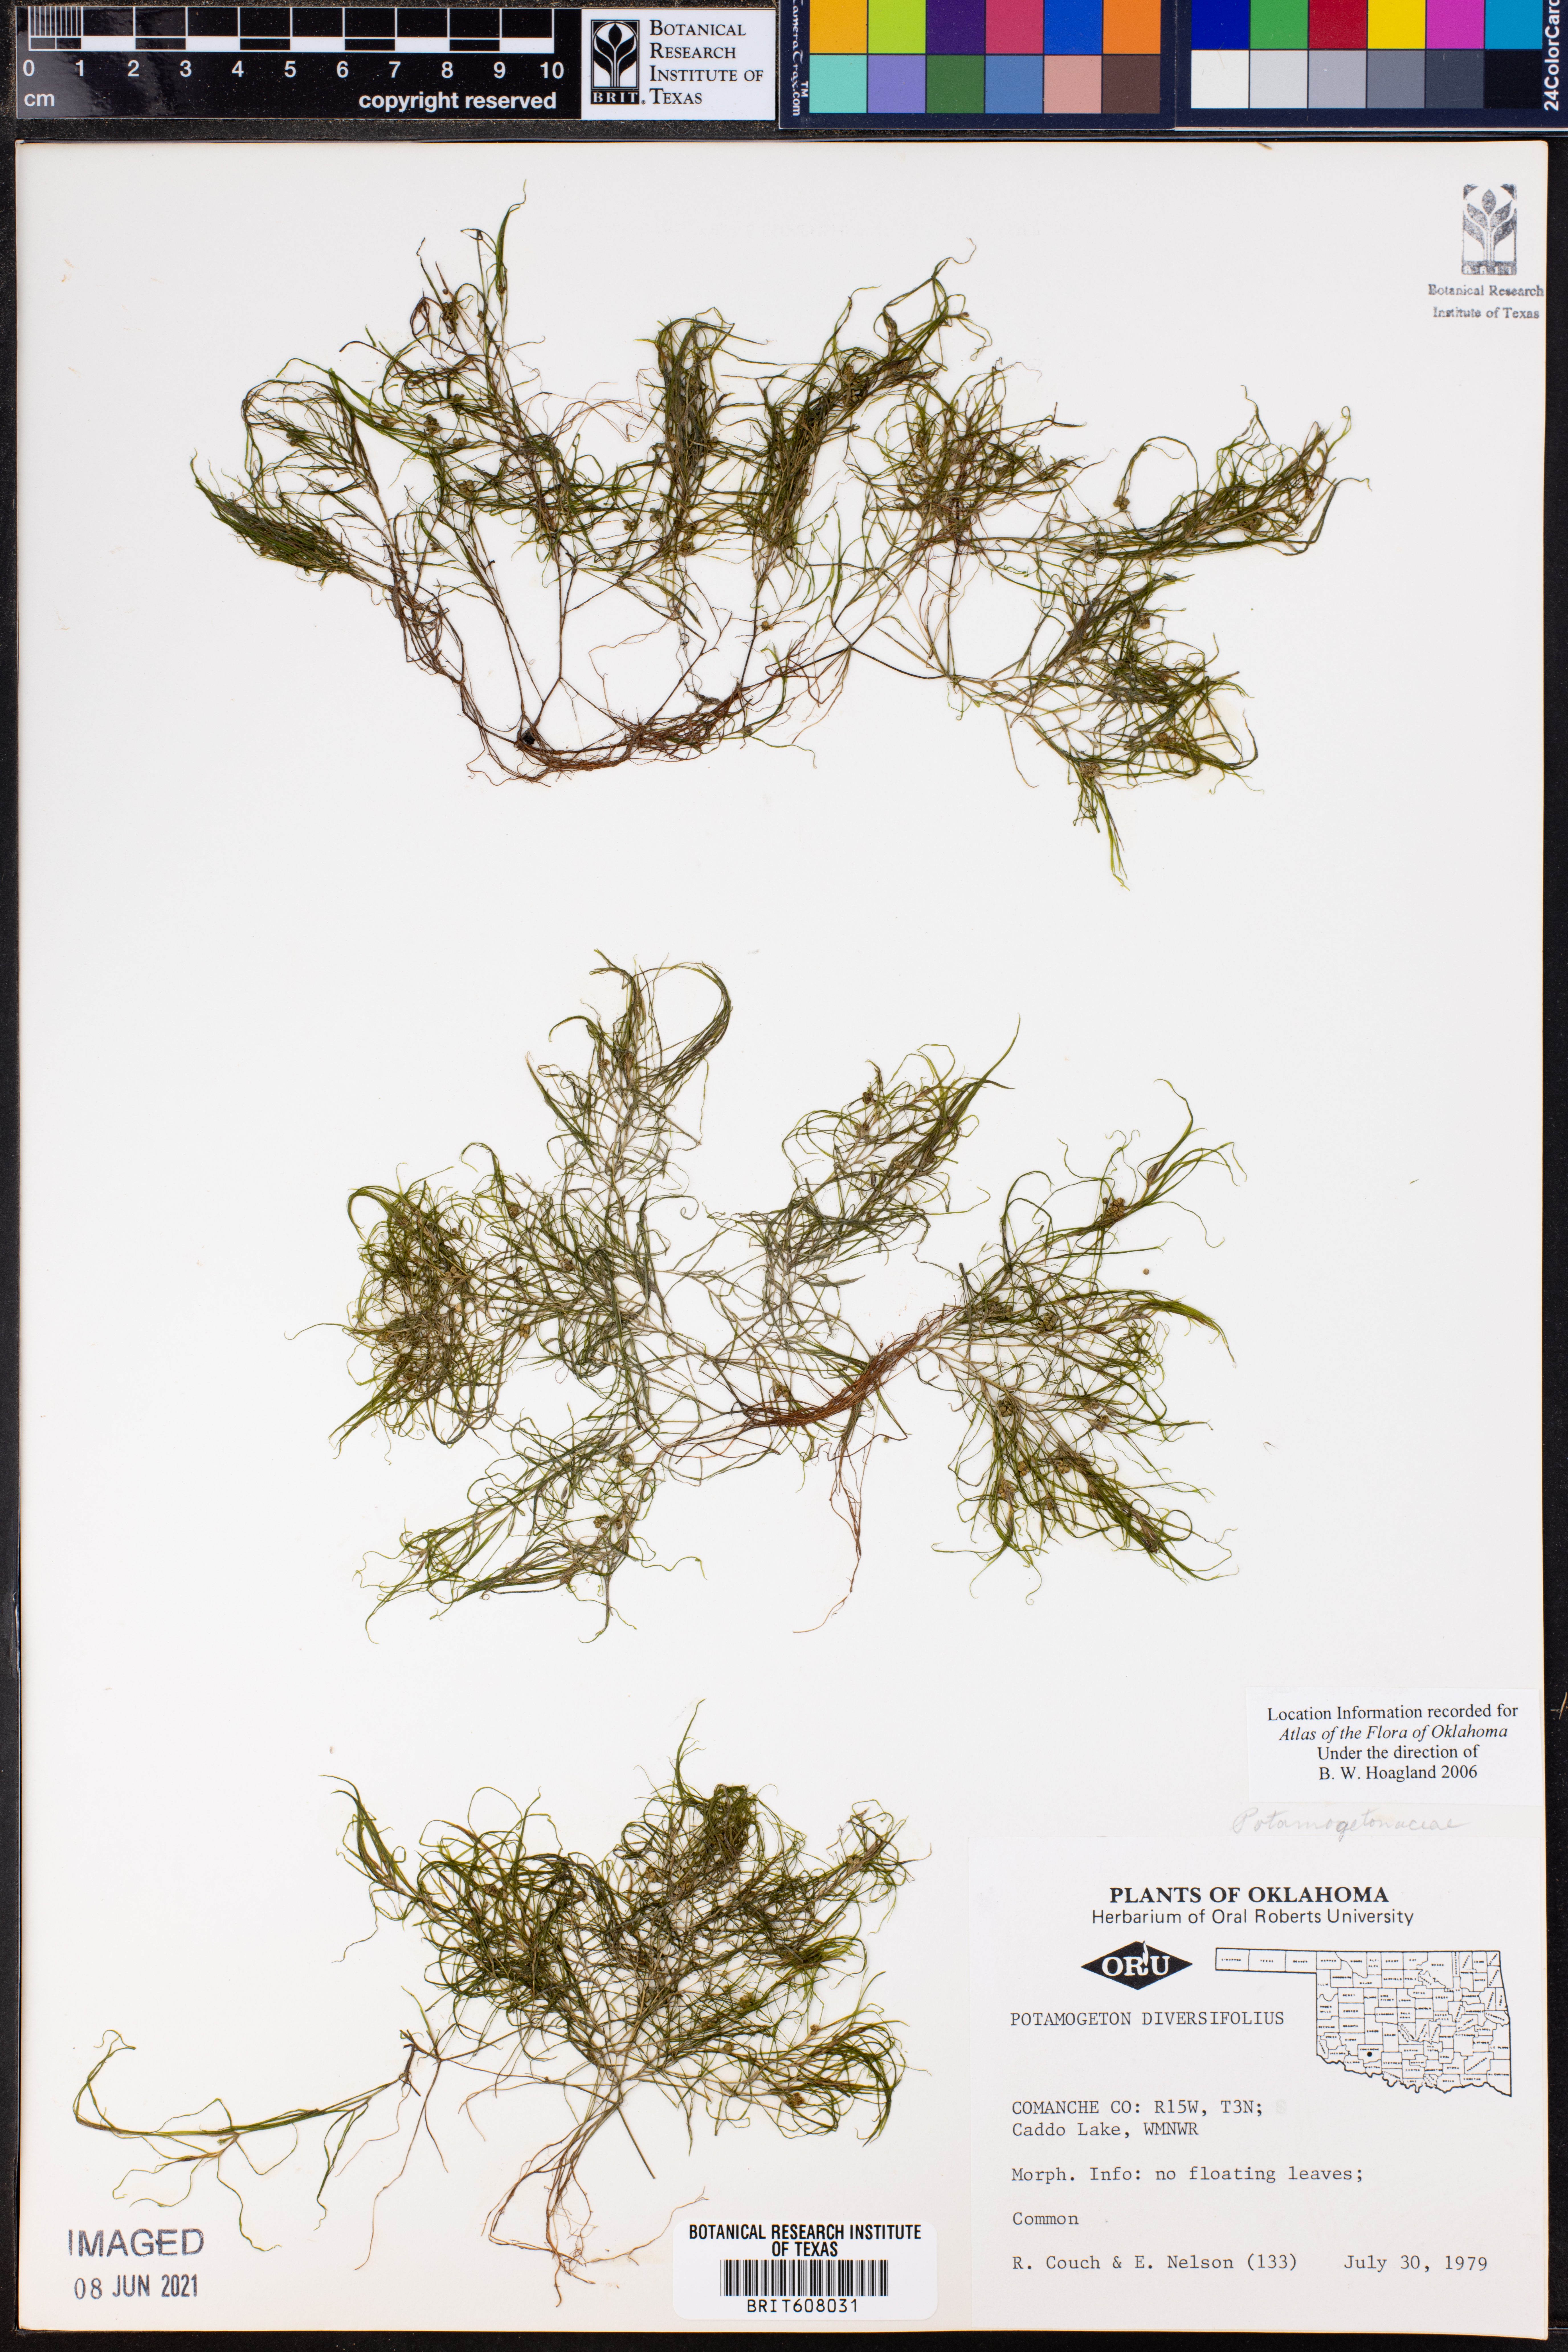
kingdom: Plantae
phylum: Tracheophyta
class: Liliopsida
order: Alismatales
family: Potamogetonaceae
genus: Potamogeton
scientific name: Potamogeton diversifolius
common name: Water-thread pondweed
